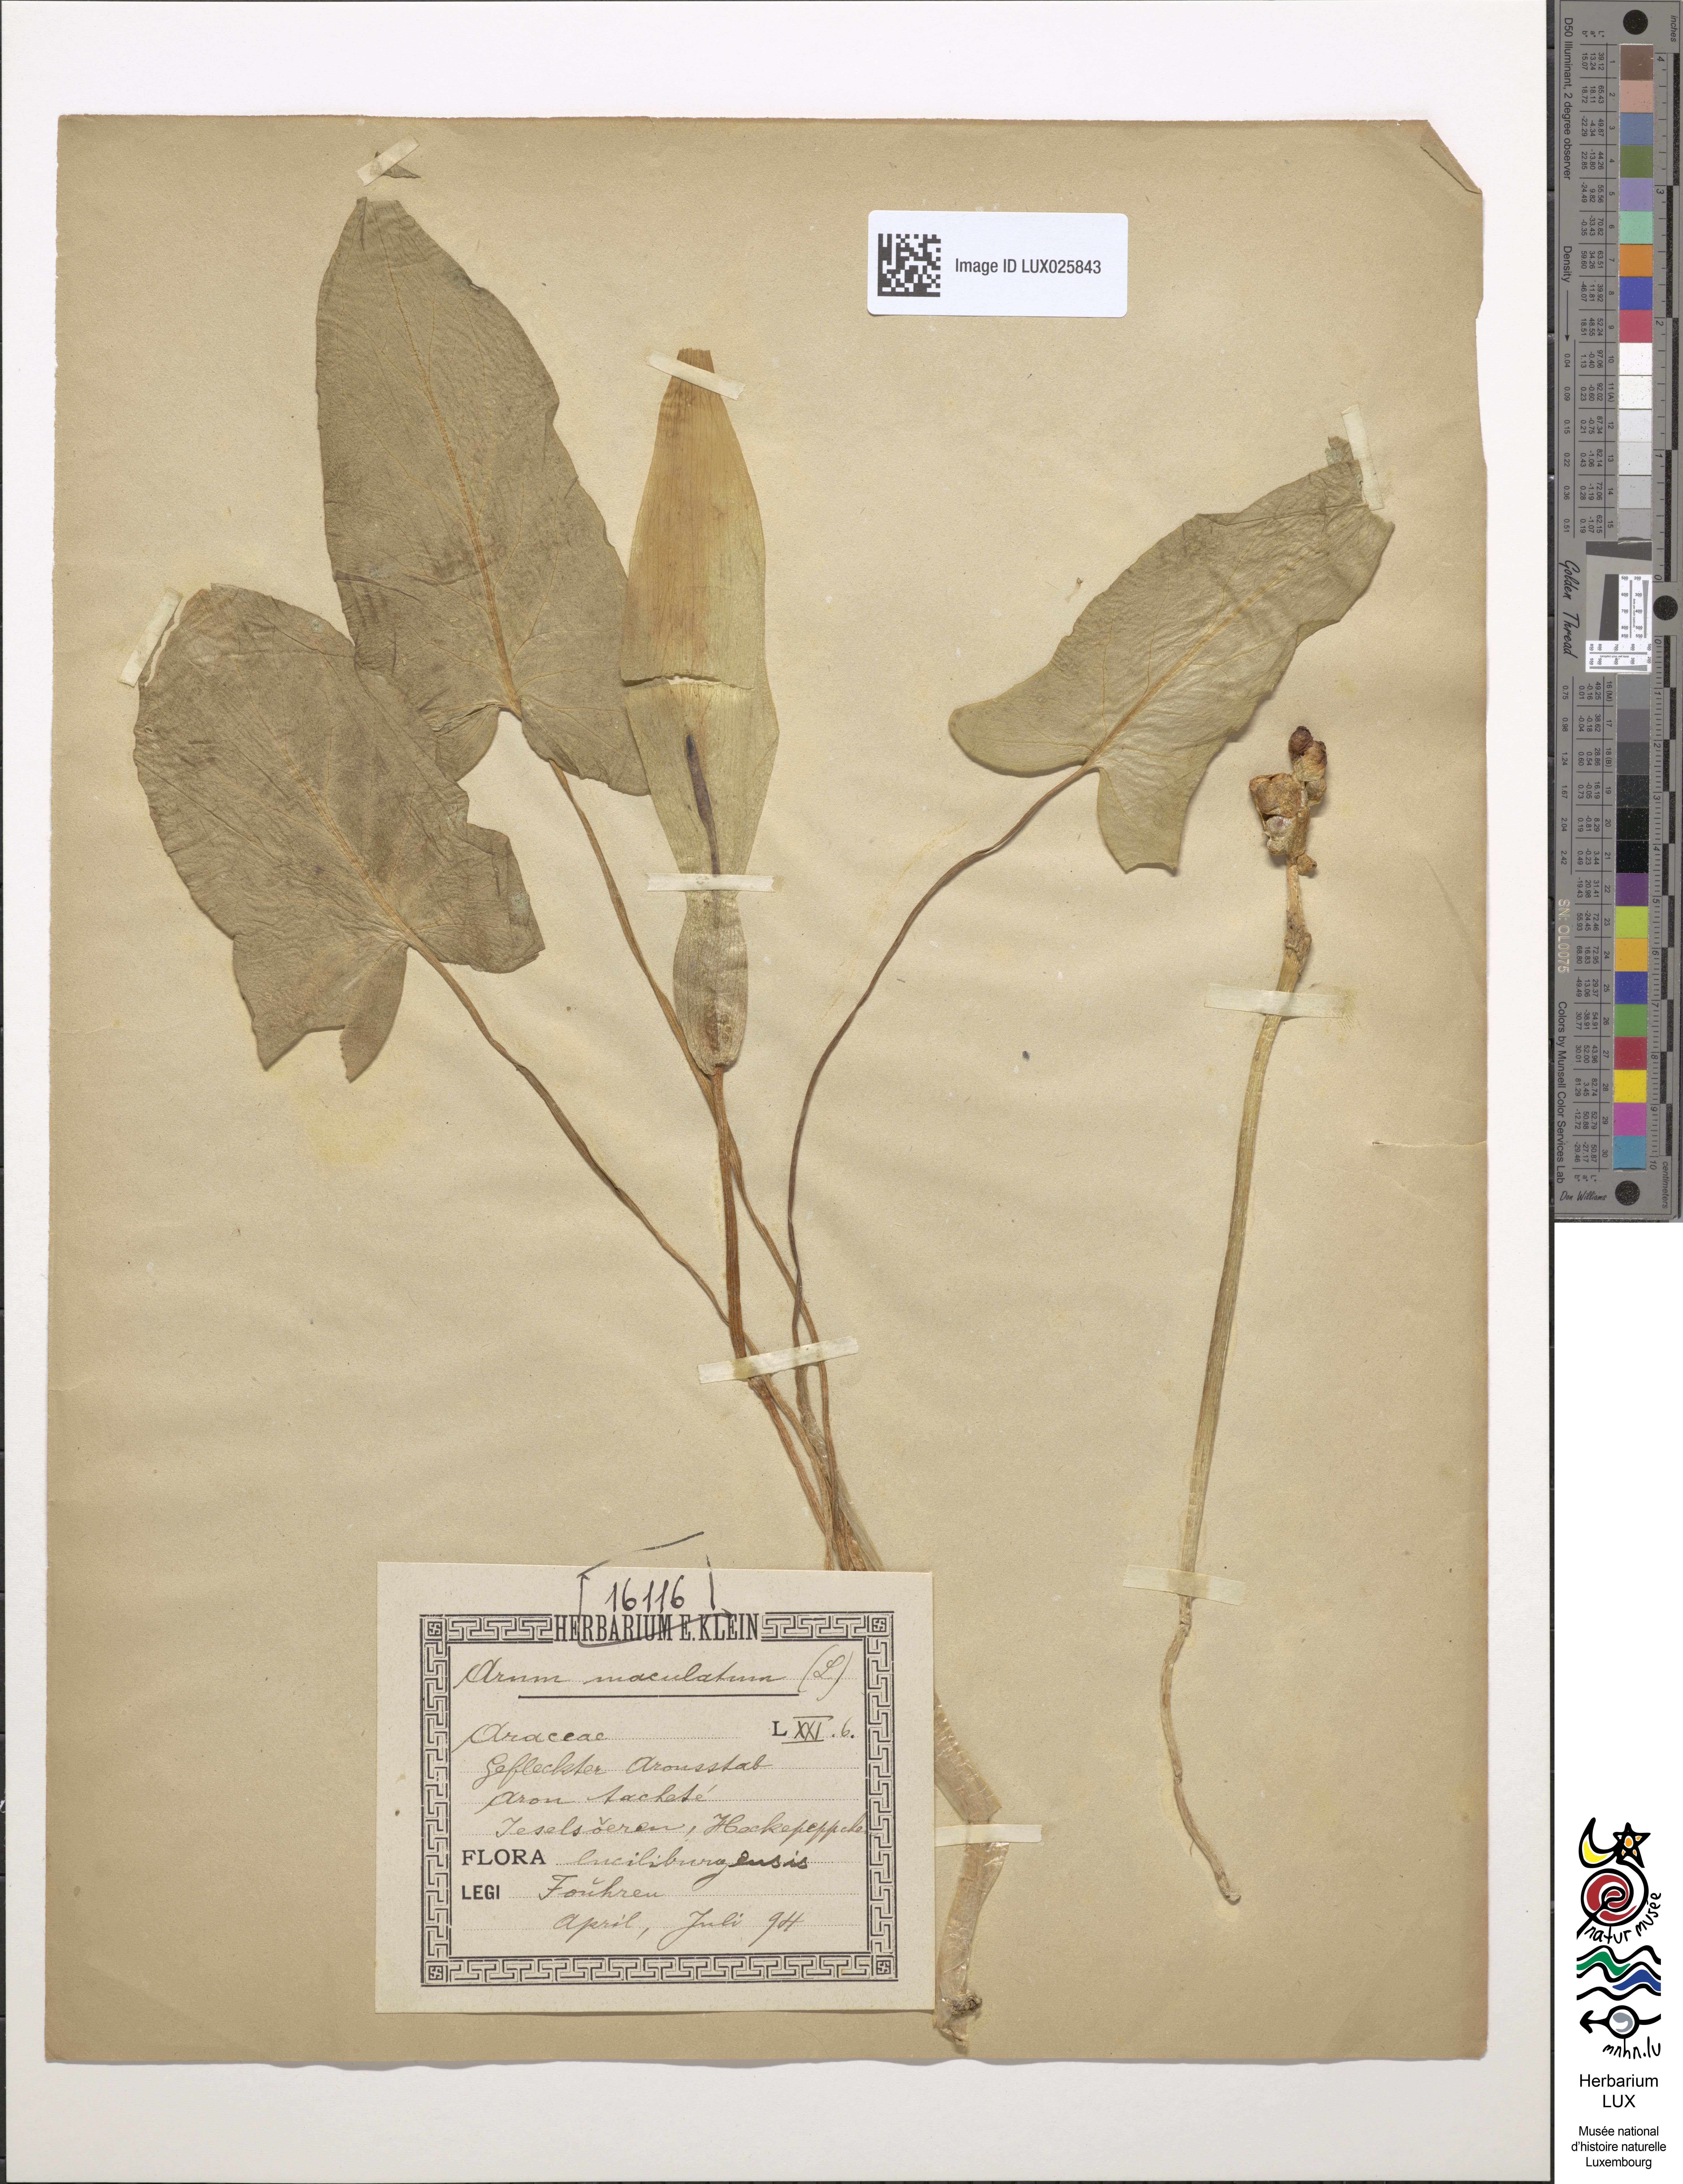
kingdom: Plantae
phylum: Tracheophyta
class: Liliopsida
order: Alismatales
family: Araceae
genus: Arum
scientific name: Arum maculatum
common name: Lords-and-ladies
